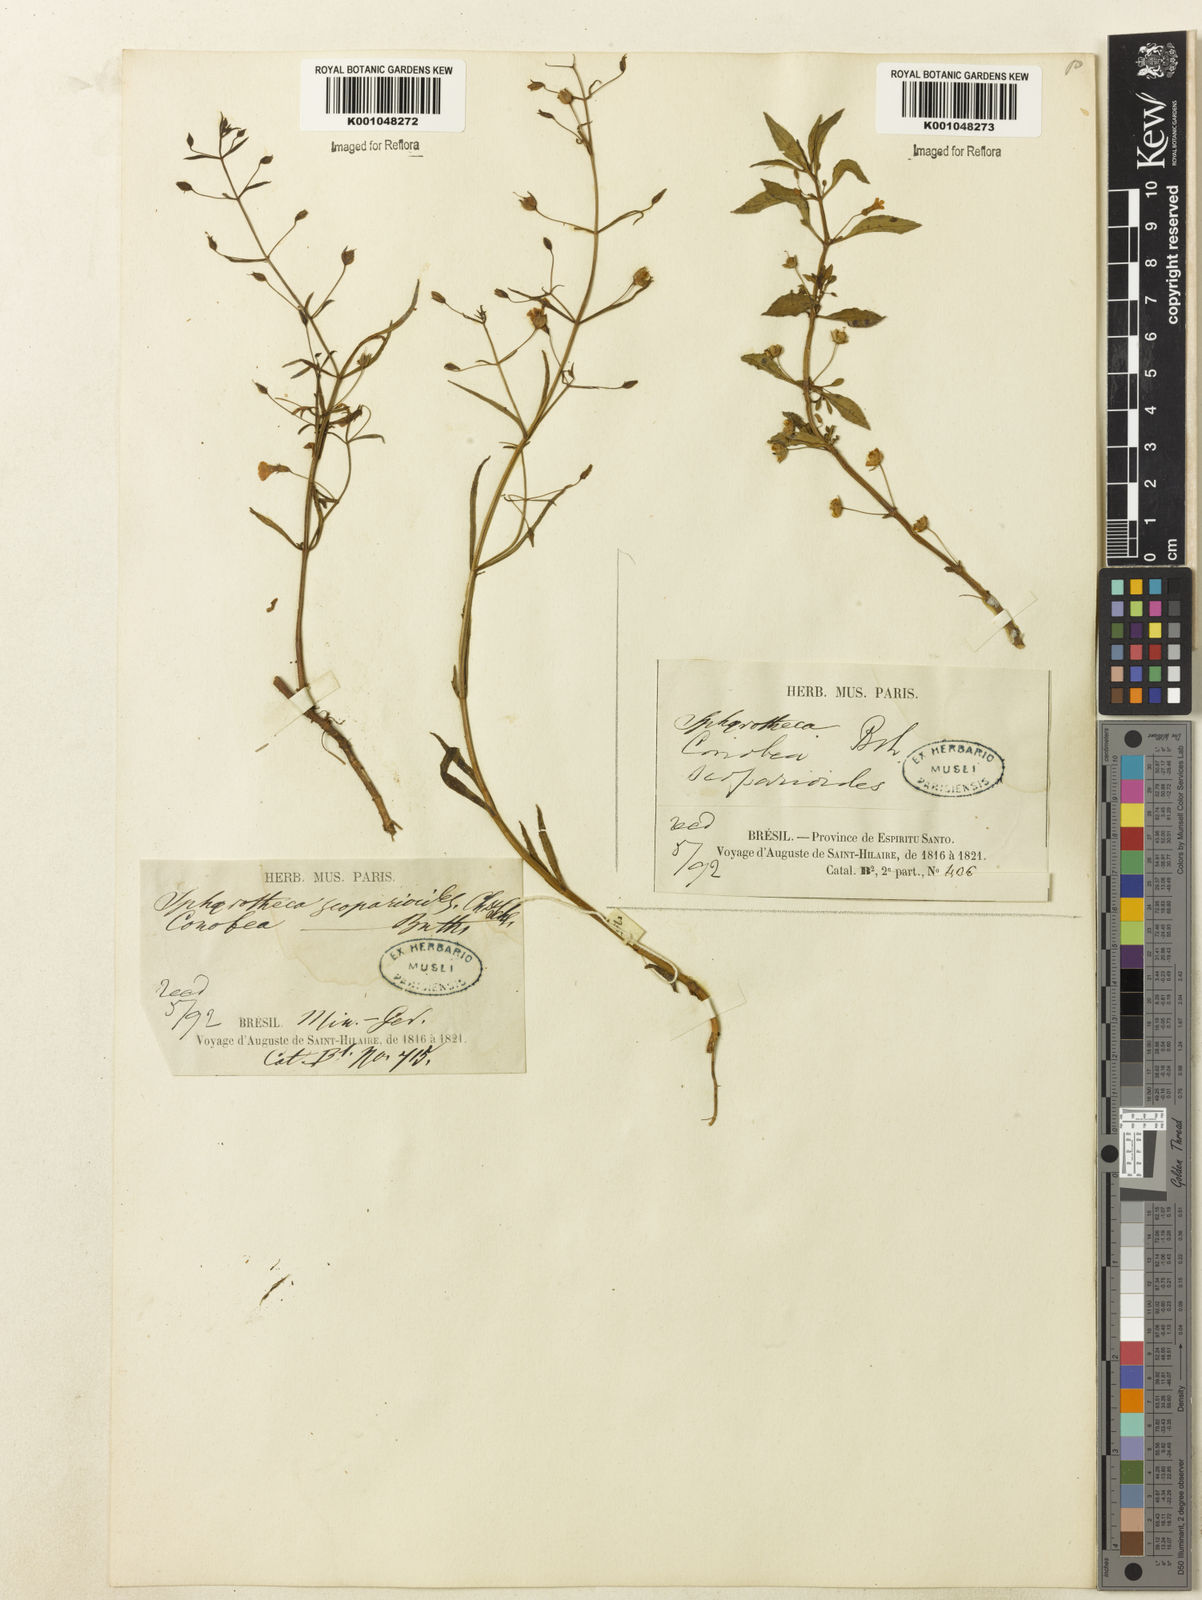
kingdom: Plantae
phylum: Tracheophyta
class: Magnoliopsida
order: Lamiales
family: Plantaginaceae
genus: Conobea
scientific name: Conobea scoparioides
